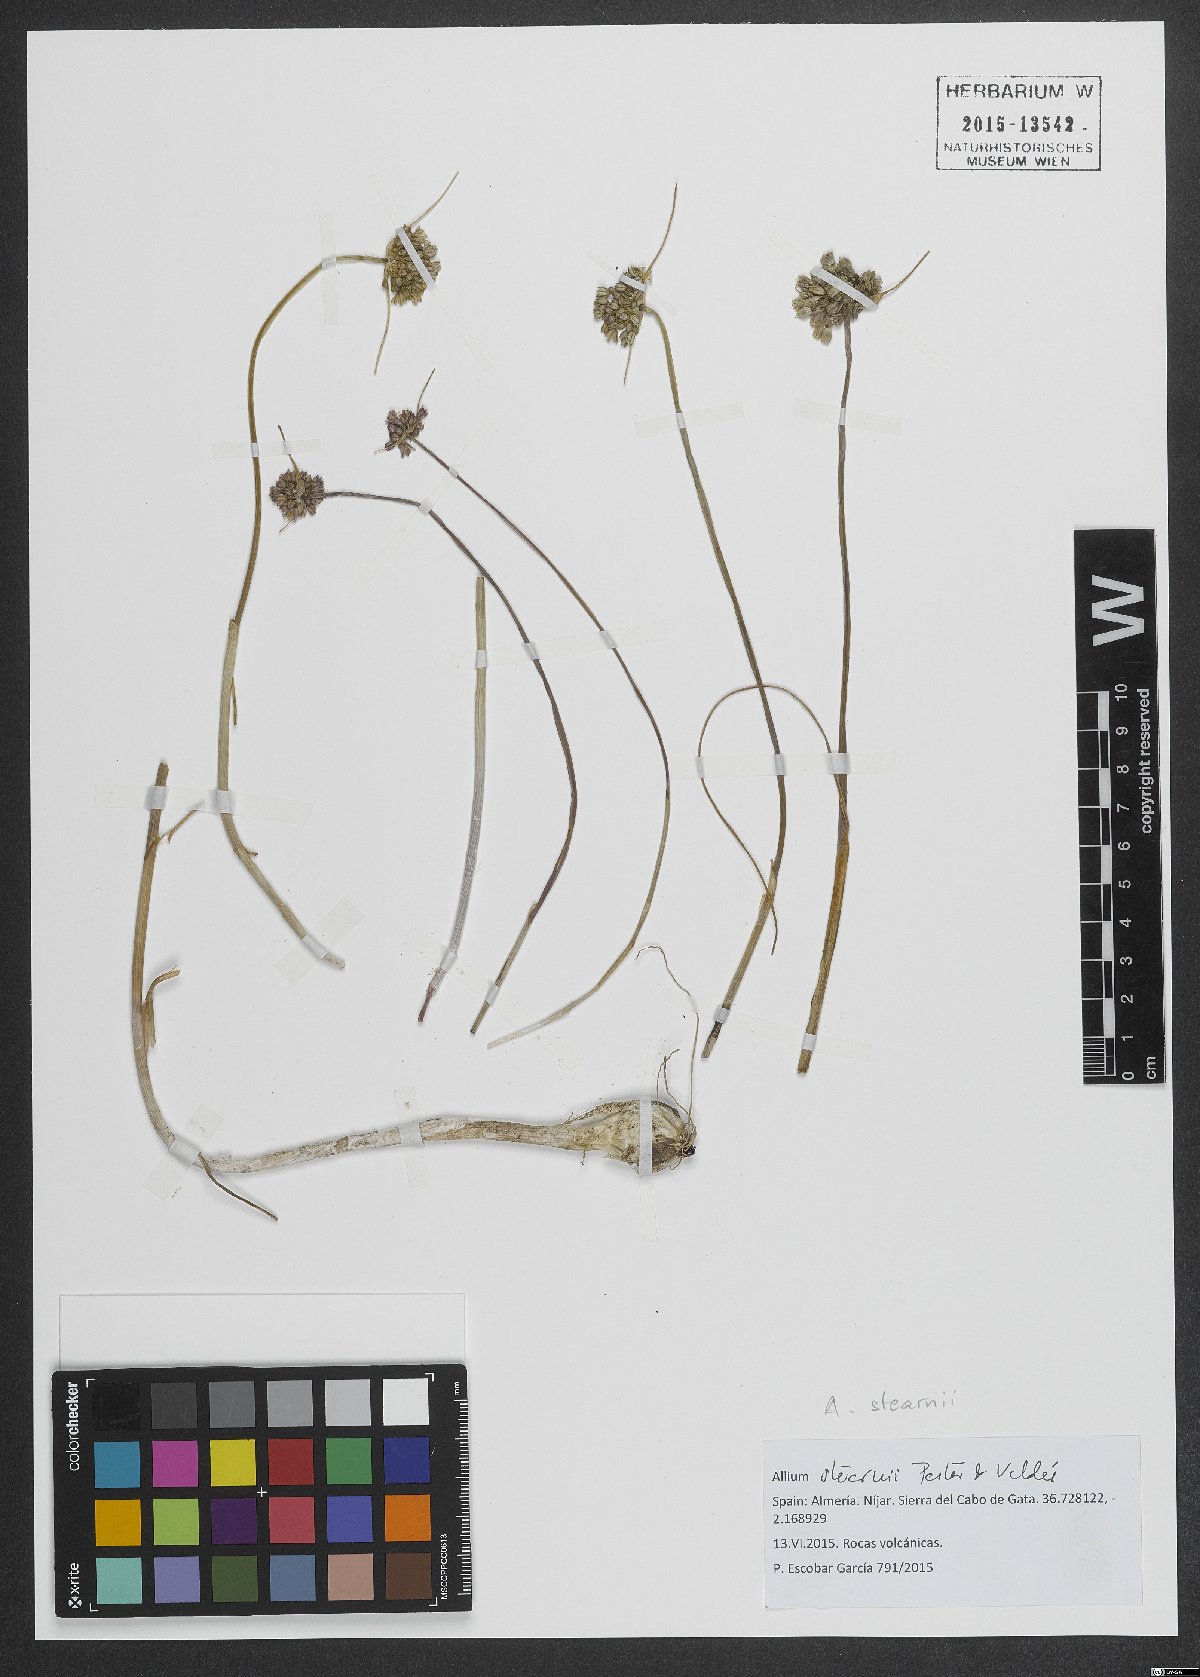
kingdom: Plantae
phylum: Tracheophyta
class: Liliopsida
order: Asparagales
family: Amaryllidaceae
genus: Allium
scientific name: Allium stearnii
